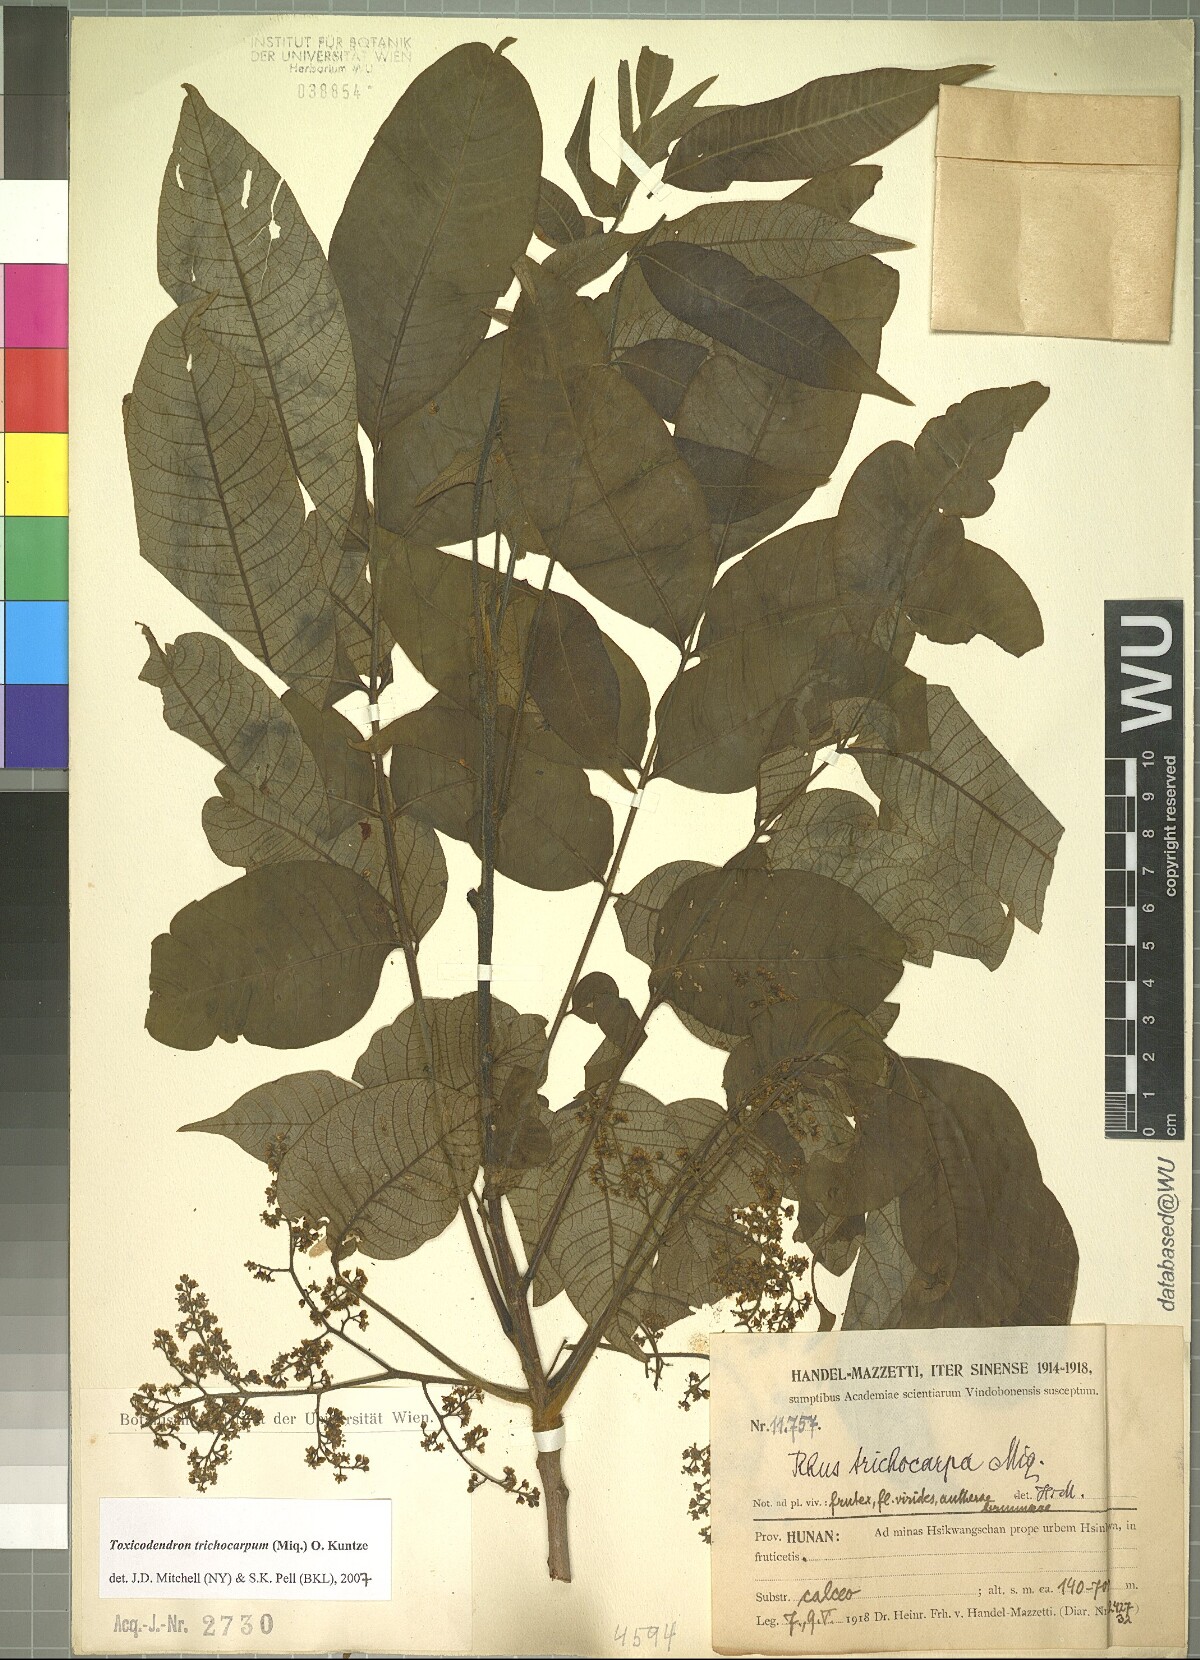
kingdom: Plantae
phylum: Tracheophyta
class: Magnoliopsida
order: Sapindales
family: Anacardiaceae
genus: Toxicodendron
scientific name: Toxicodendron trichocarpum
